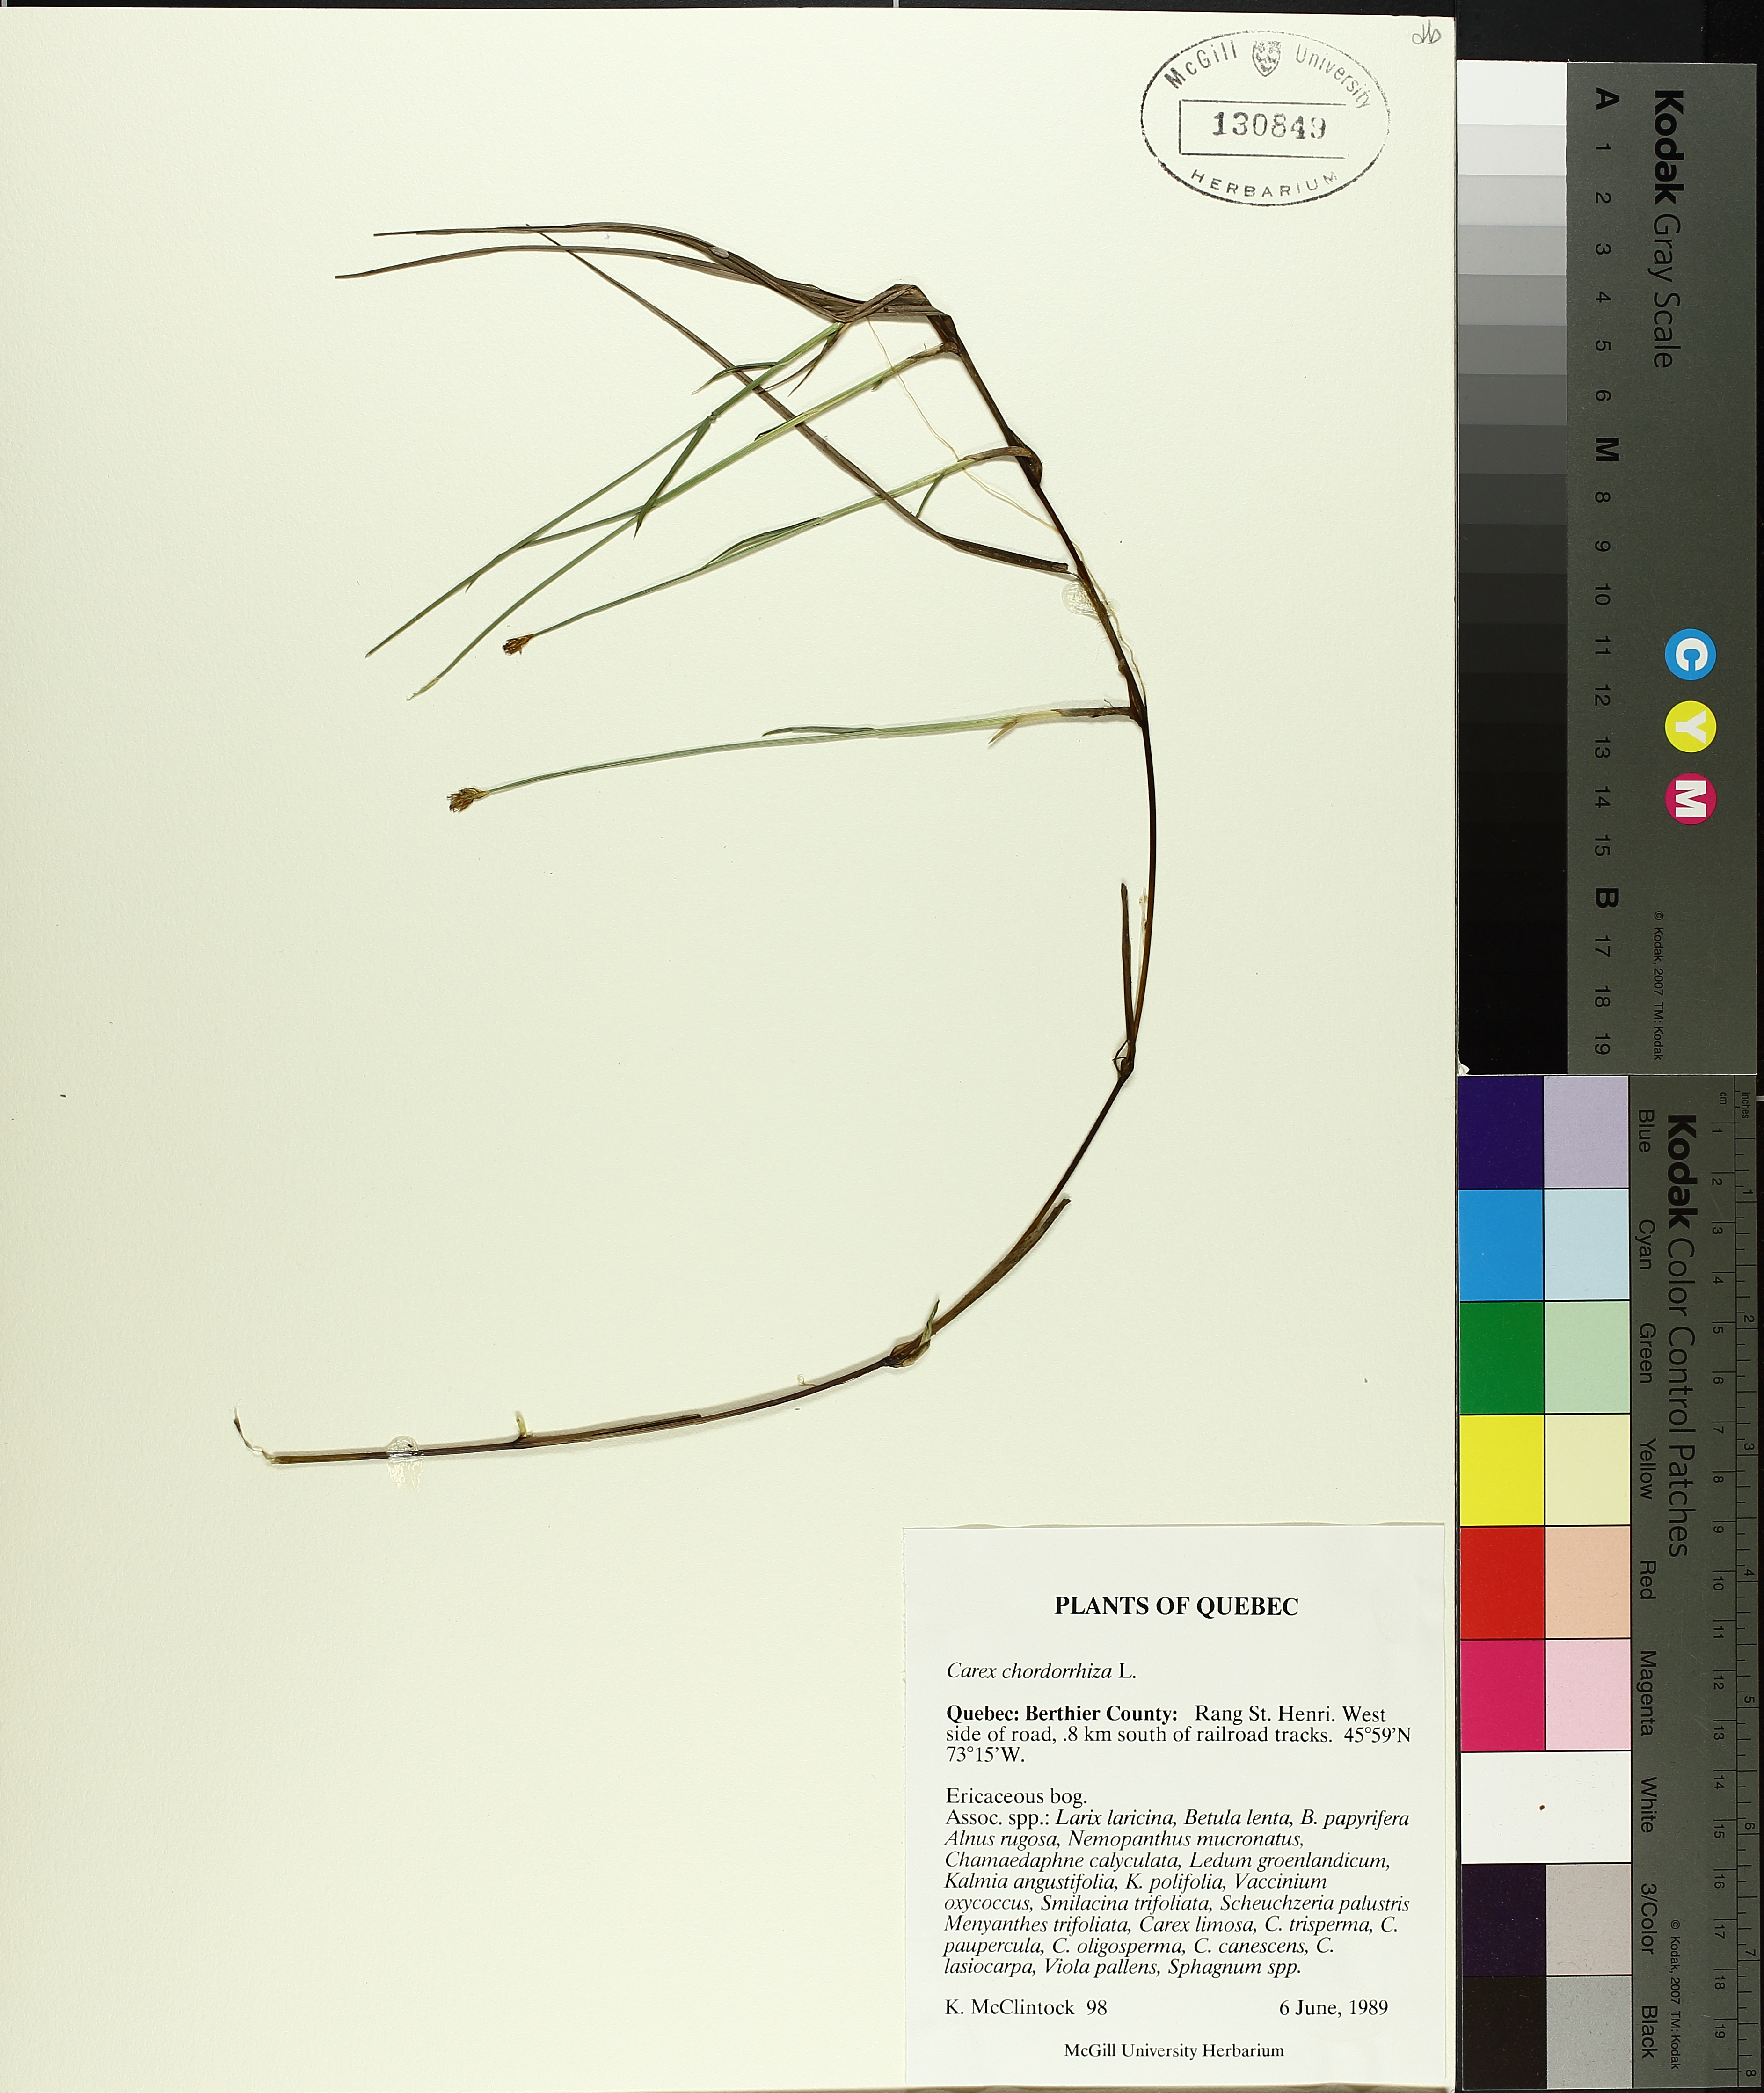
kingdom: Plantae
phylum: Tracheophyta
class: Liliopsida
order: Poales
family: Cyperaceae
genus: Carex
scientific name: Carex
